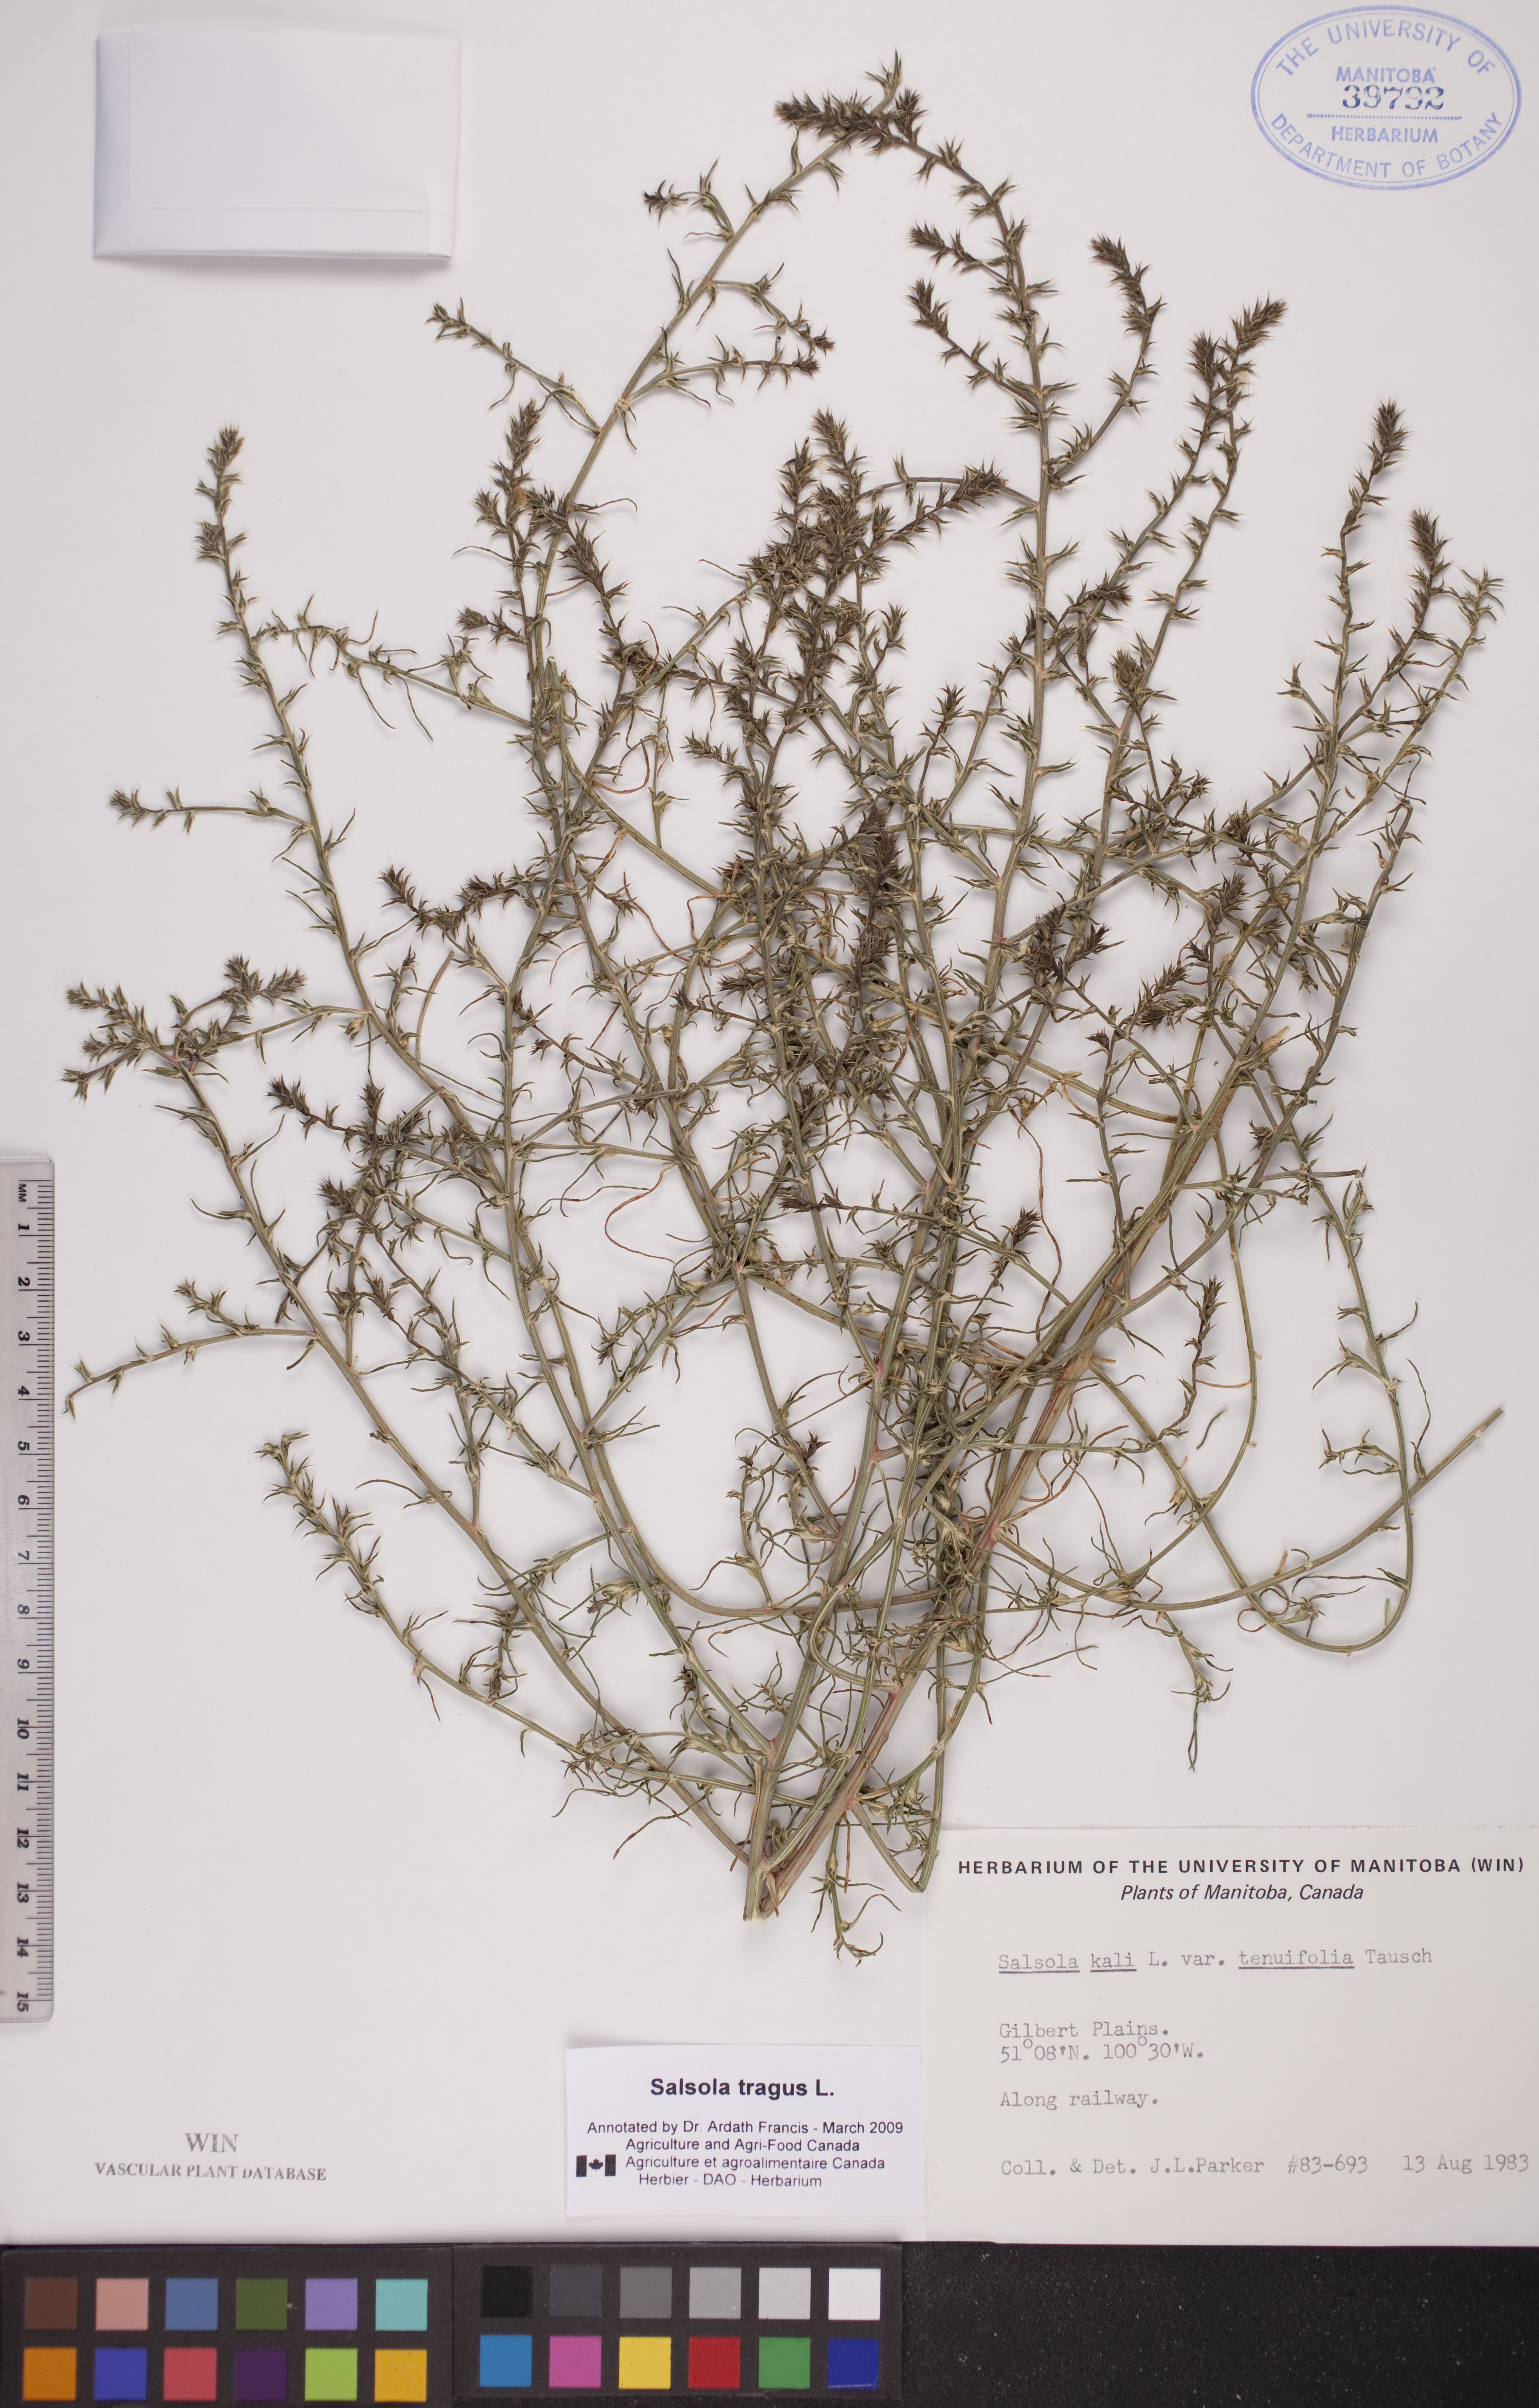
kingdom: Plantae
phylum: Tracheophyta
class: Magnoliopsida
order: Caryophyllales
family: Amaranthaceae
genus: Salsola
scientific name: Salsola tragus
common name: Prickly russian thistle
